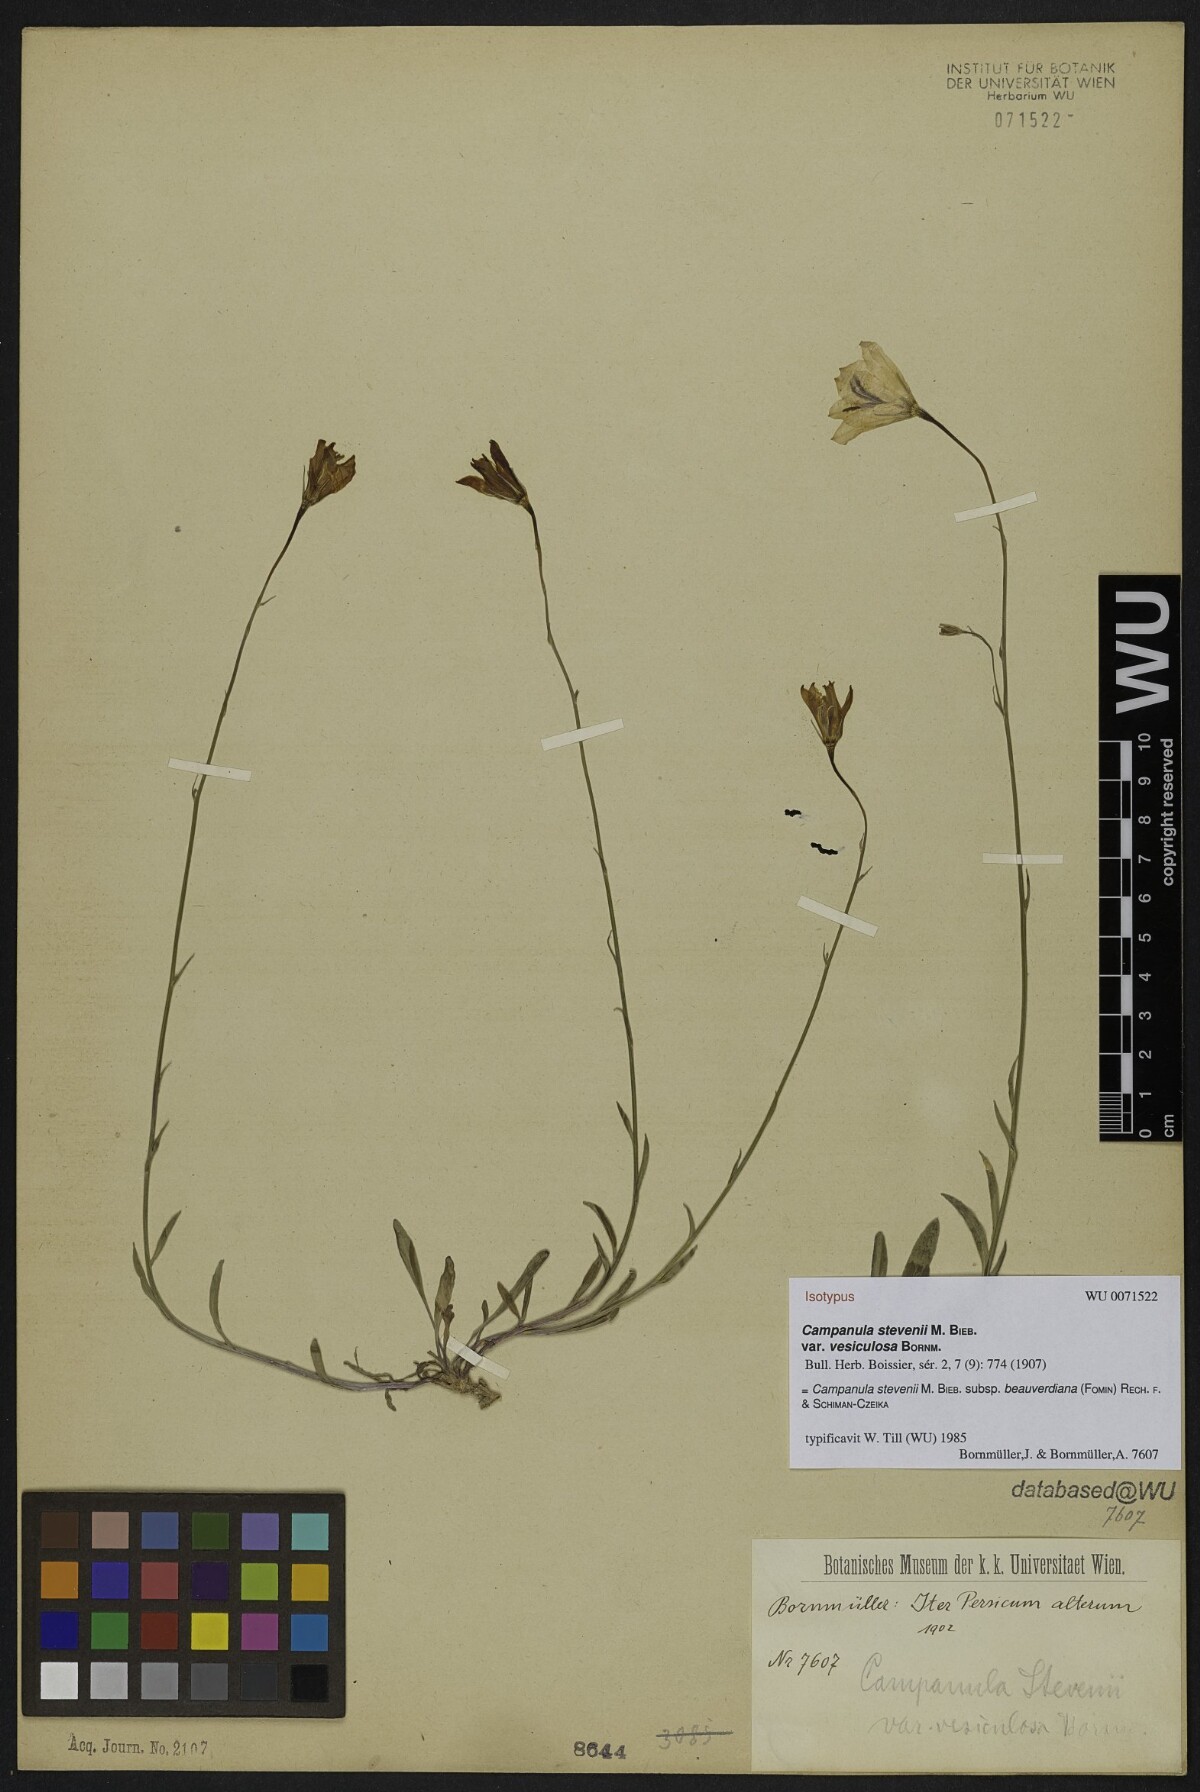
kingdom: Plantae
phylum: Tracheophyta
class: Magnoliopsida
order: Asterales
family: Campanulaceae
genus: Campanula
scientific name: Campanula stevenii
